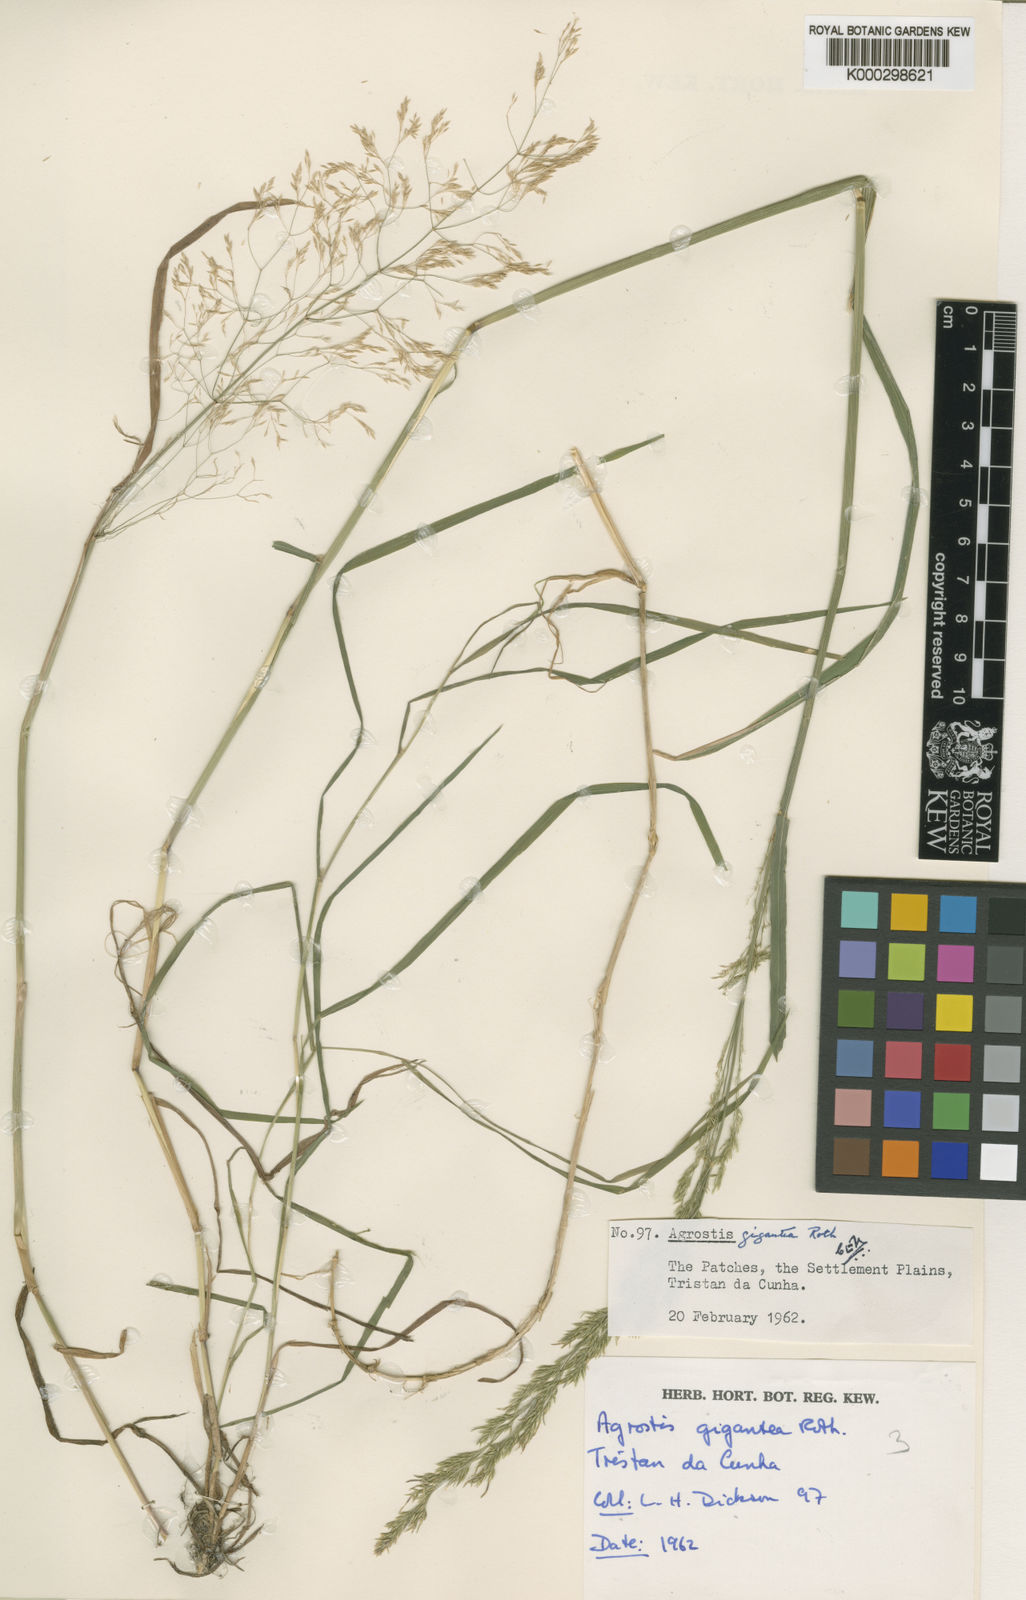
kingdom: Plantae
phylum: Tracheophyta
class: Liliopsida
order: Poales
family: Poaceae
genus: Agrostis
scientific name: Agrostis gigantea
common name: Black bent
